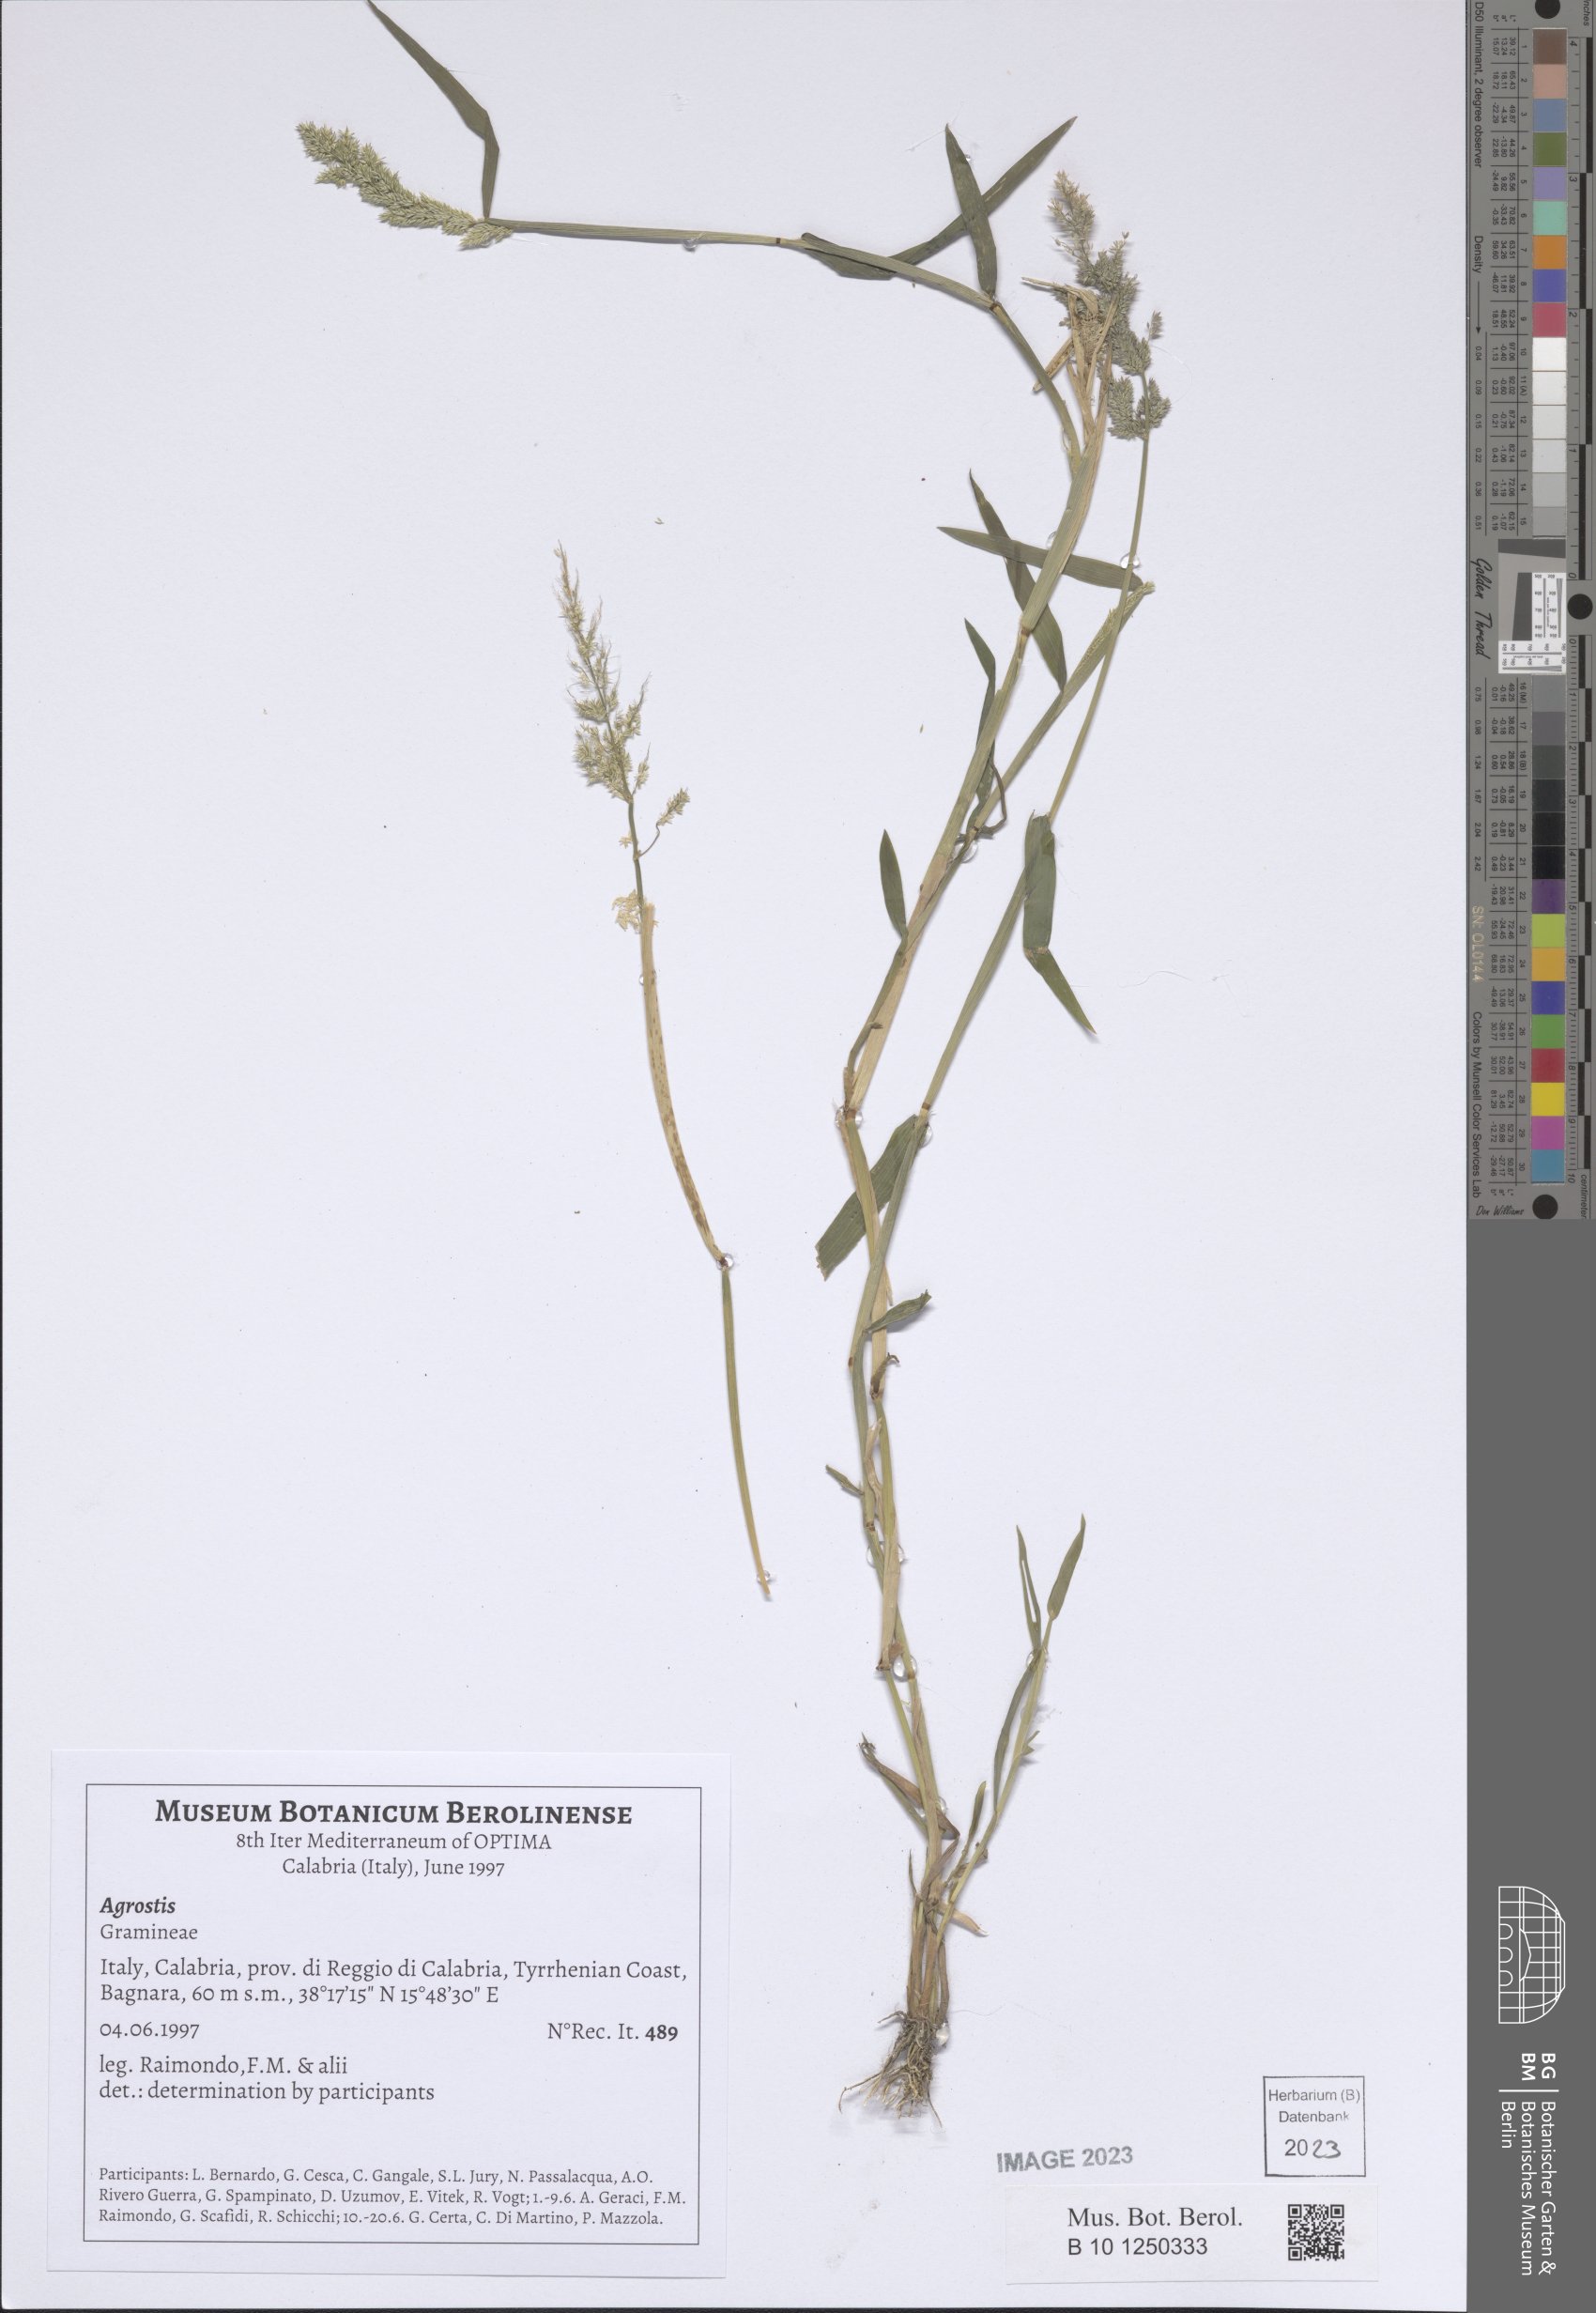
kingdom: Plantae
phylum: Tracheophyta
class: Liliopsida
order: Poales
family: Poaceae
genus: Agrostis
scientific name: Agrostis
